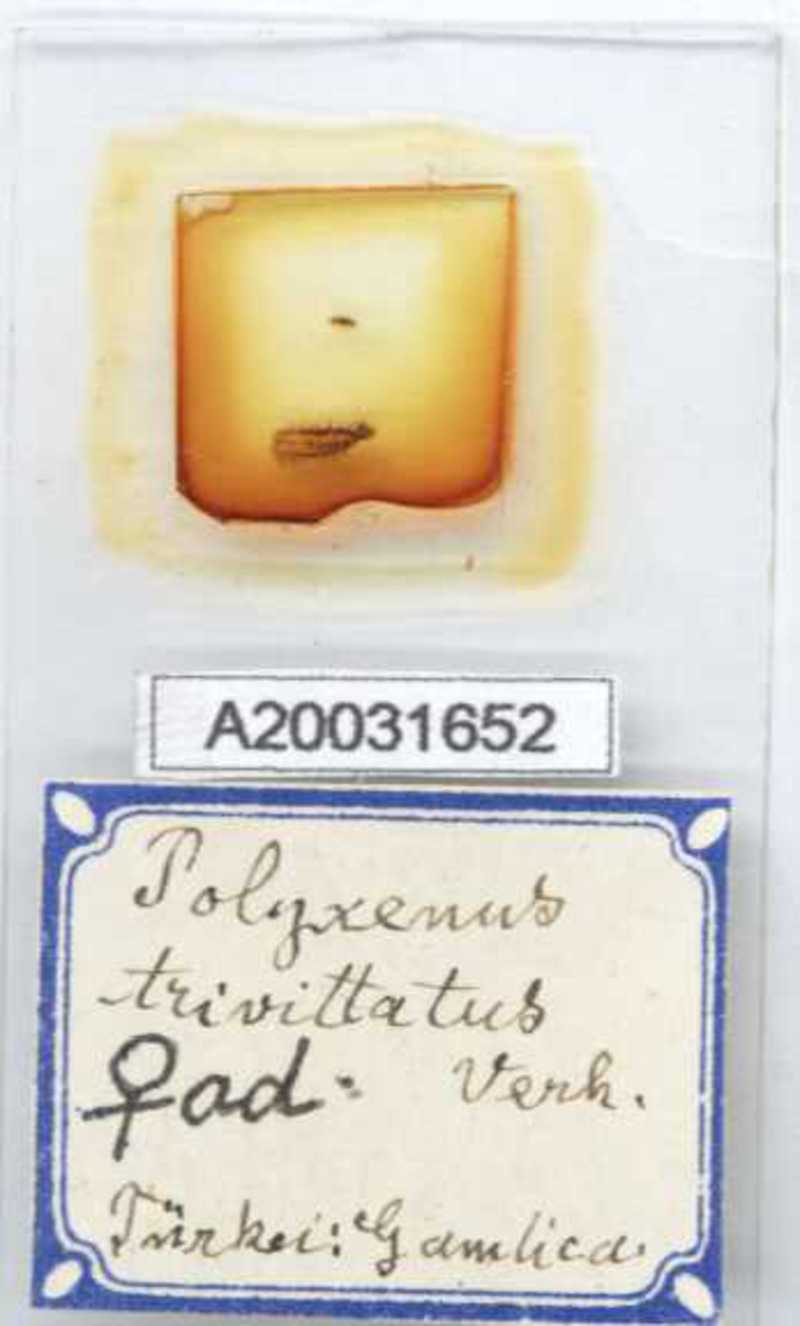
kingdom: Animalia
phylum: Arthropoda
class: Diplopoda
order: Polyxenida
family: Polyxenidae
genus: Propolyxenus
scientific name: Propolyxenus argentifer
